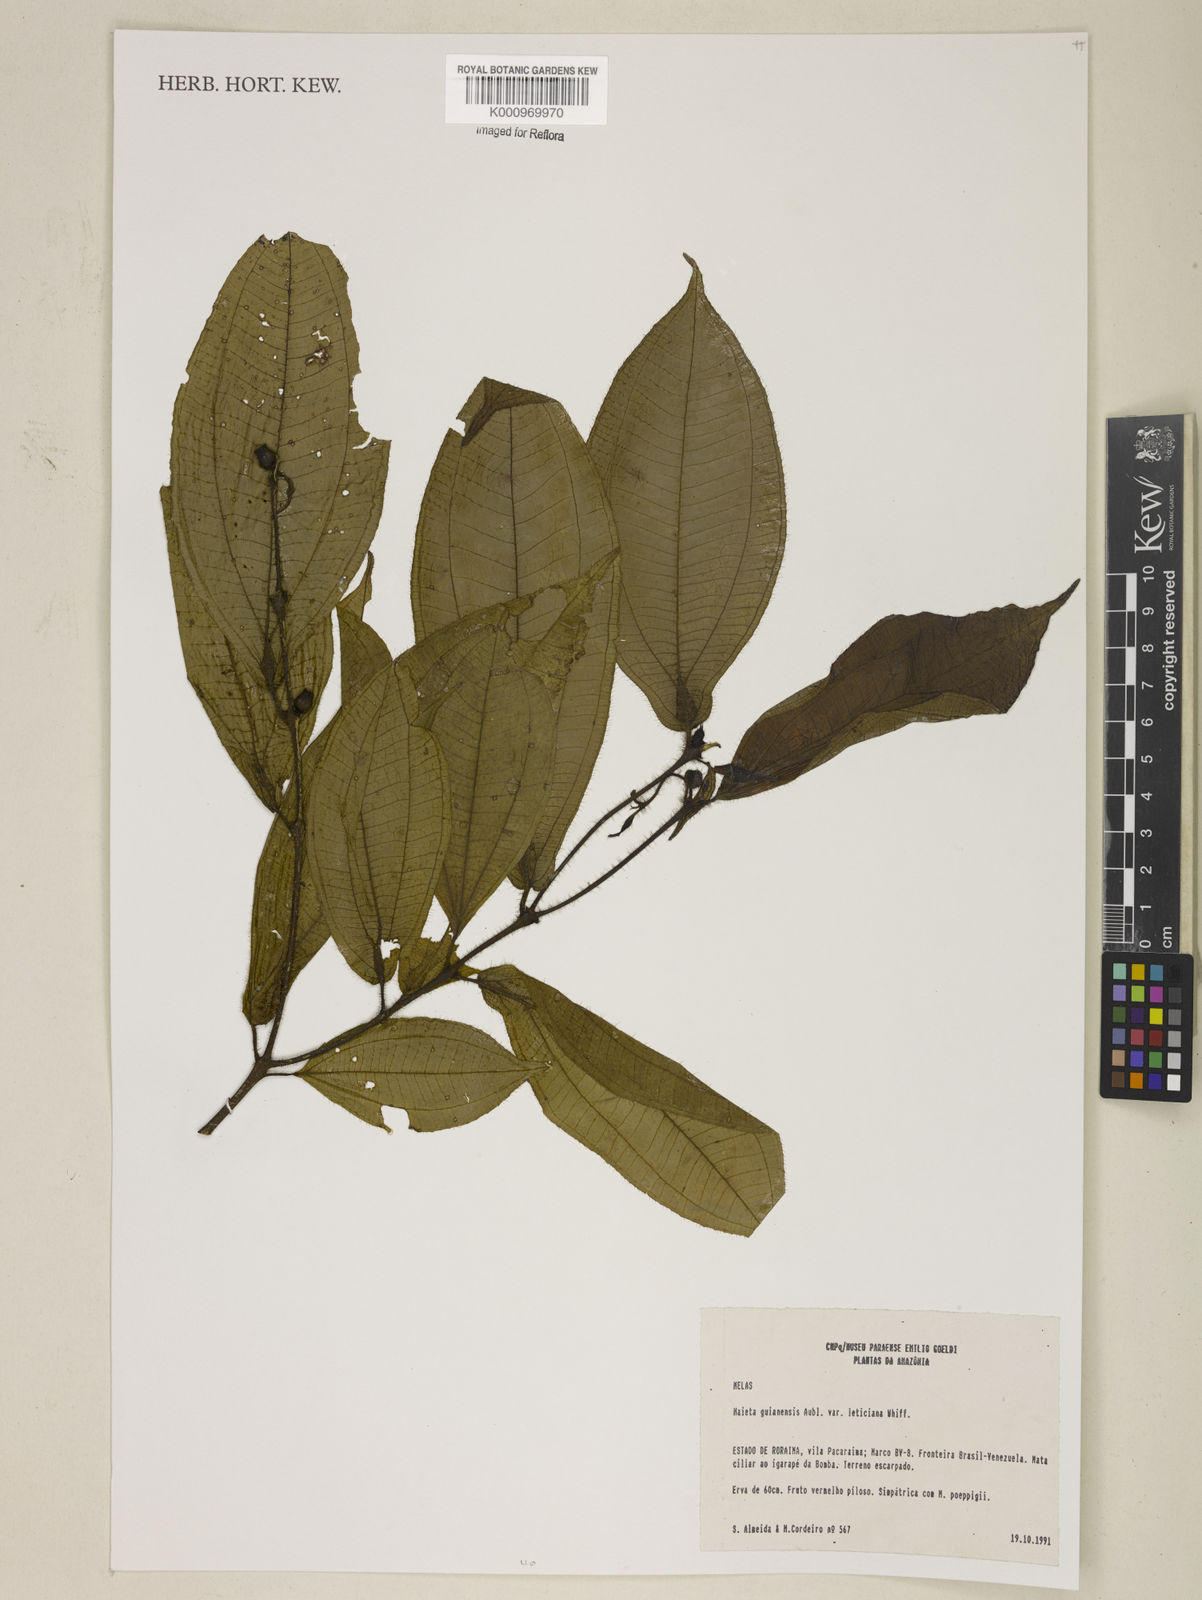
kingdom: Plantae
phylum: Tracheophyta
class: Magnoliopsida
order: Myrtales
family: Melastomataceae
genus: Miconia
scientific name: Miconia mayeta
